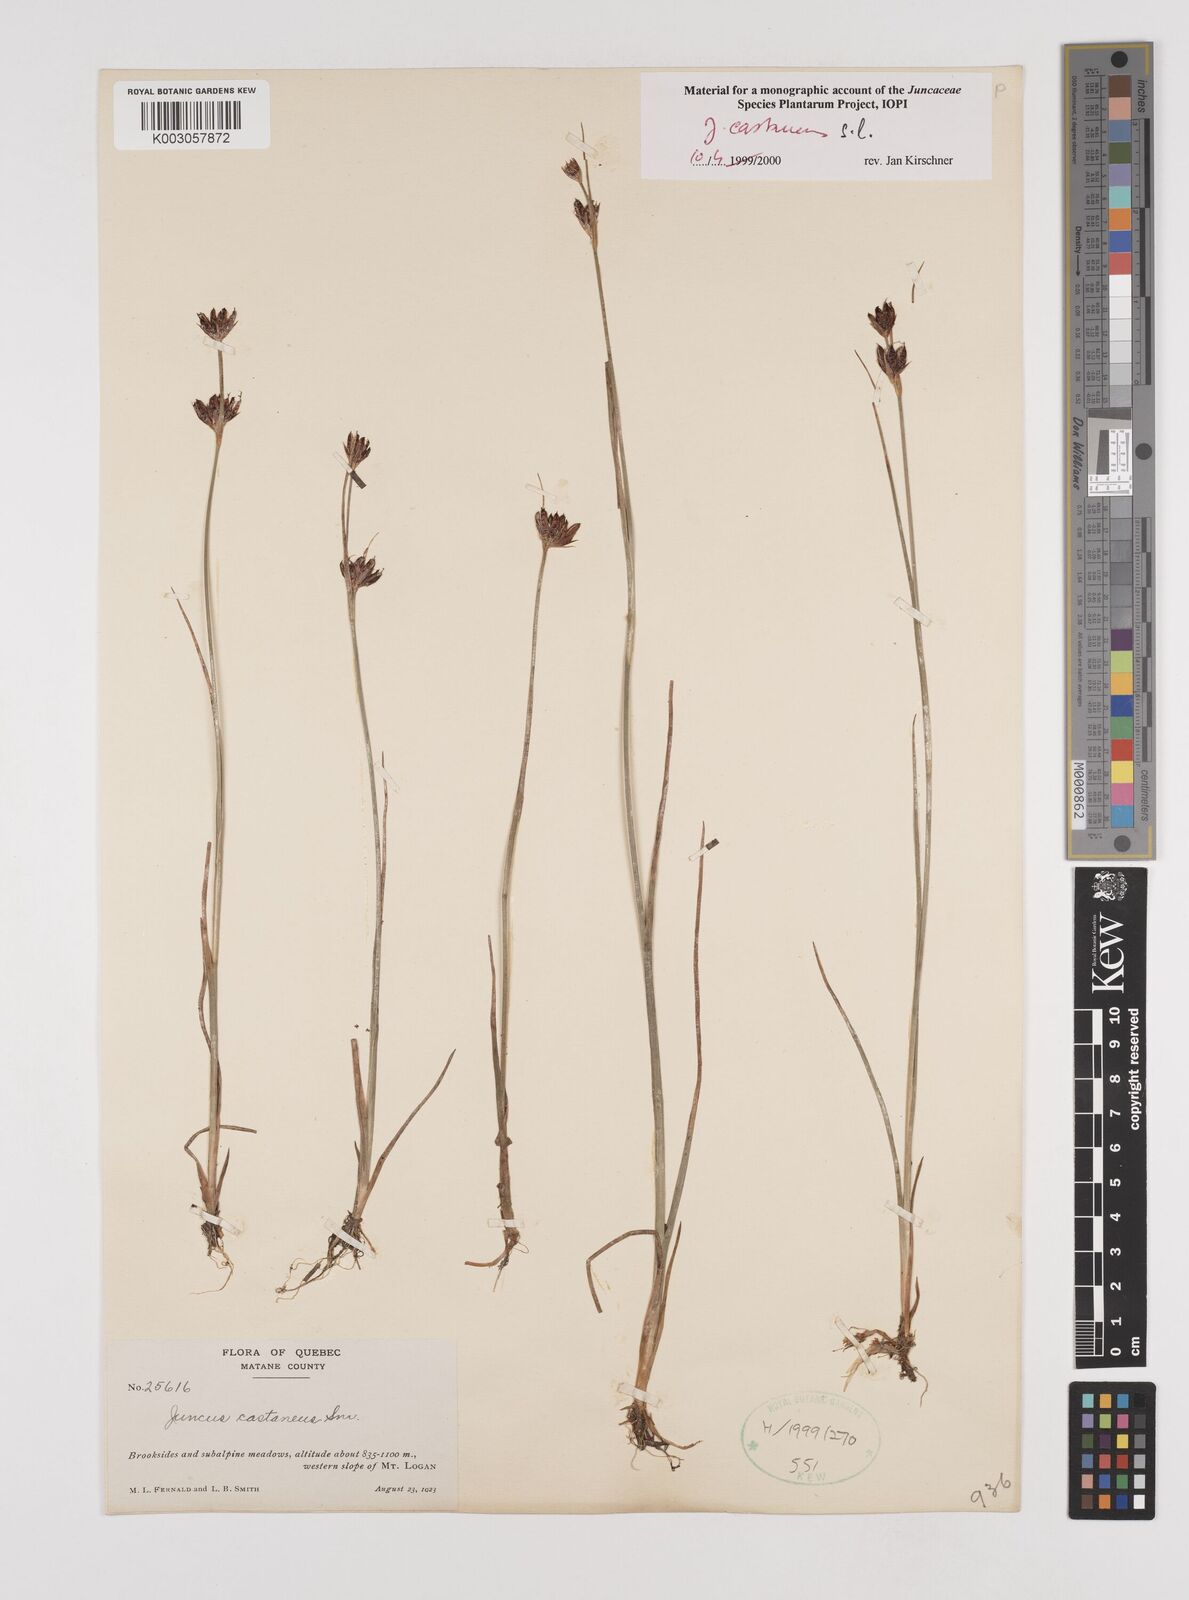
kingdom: Plantae
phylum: Tracheophyta
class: Liliopsida
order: Poales
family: Juncaceae
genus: Juncus
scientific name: Juncus castaneus
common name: Chestnut rush
